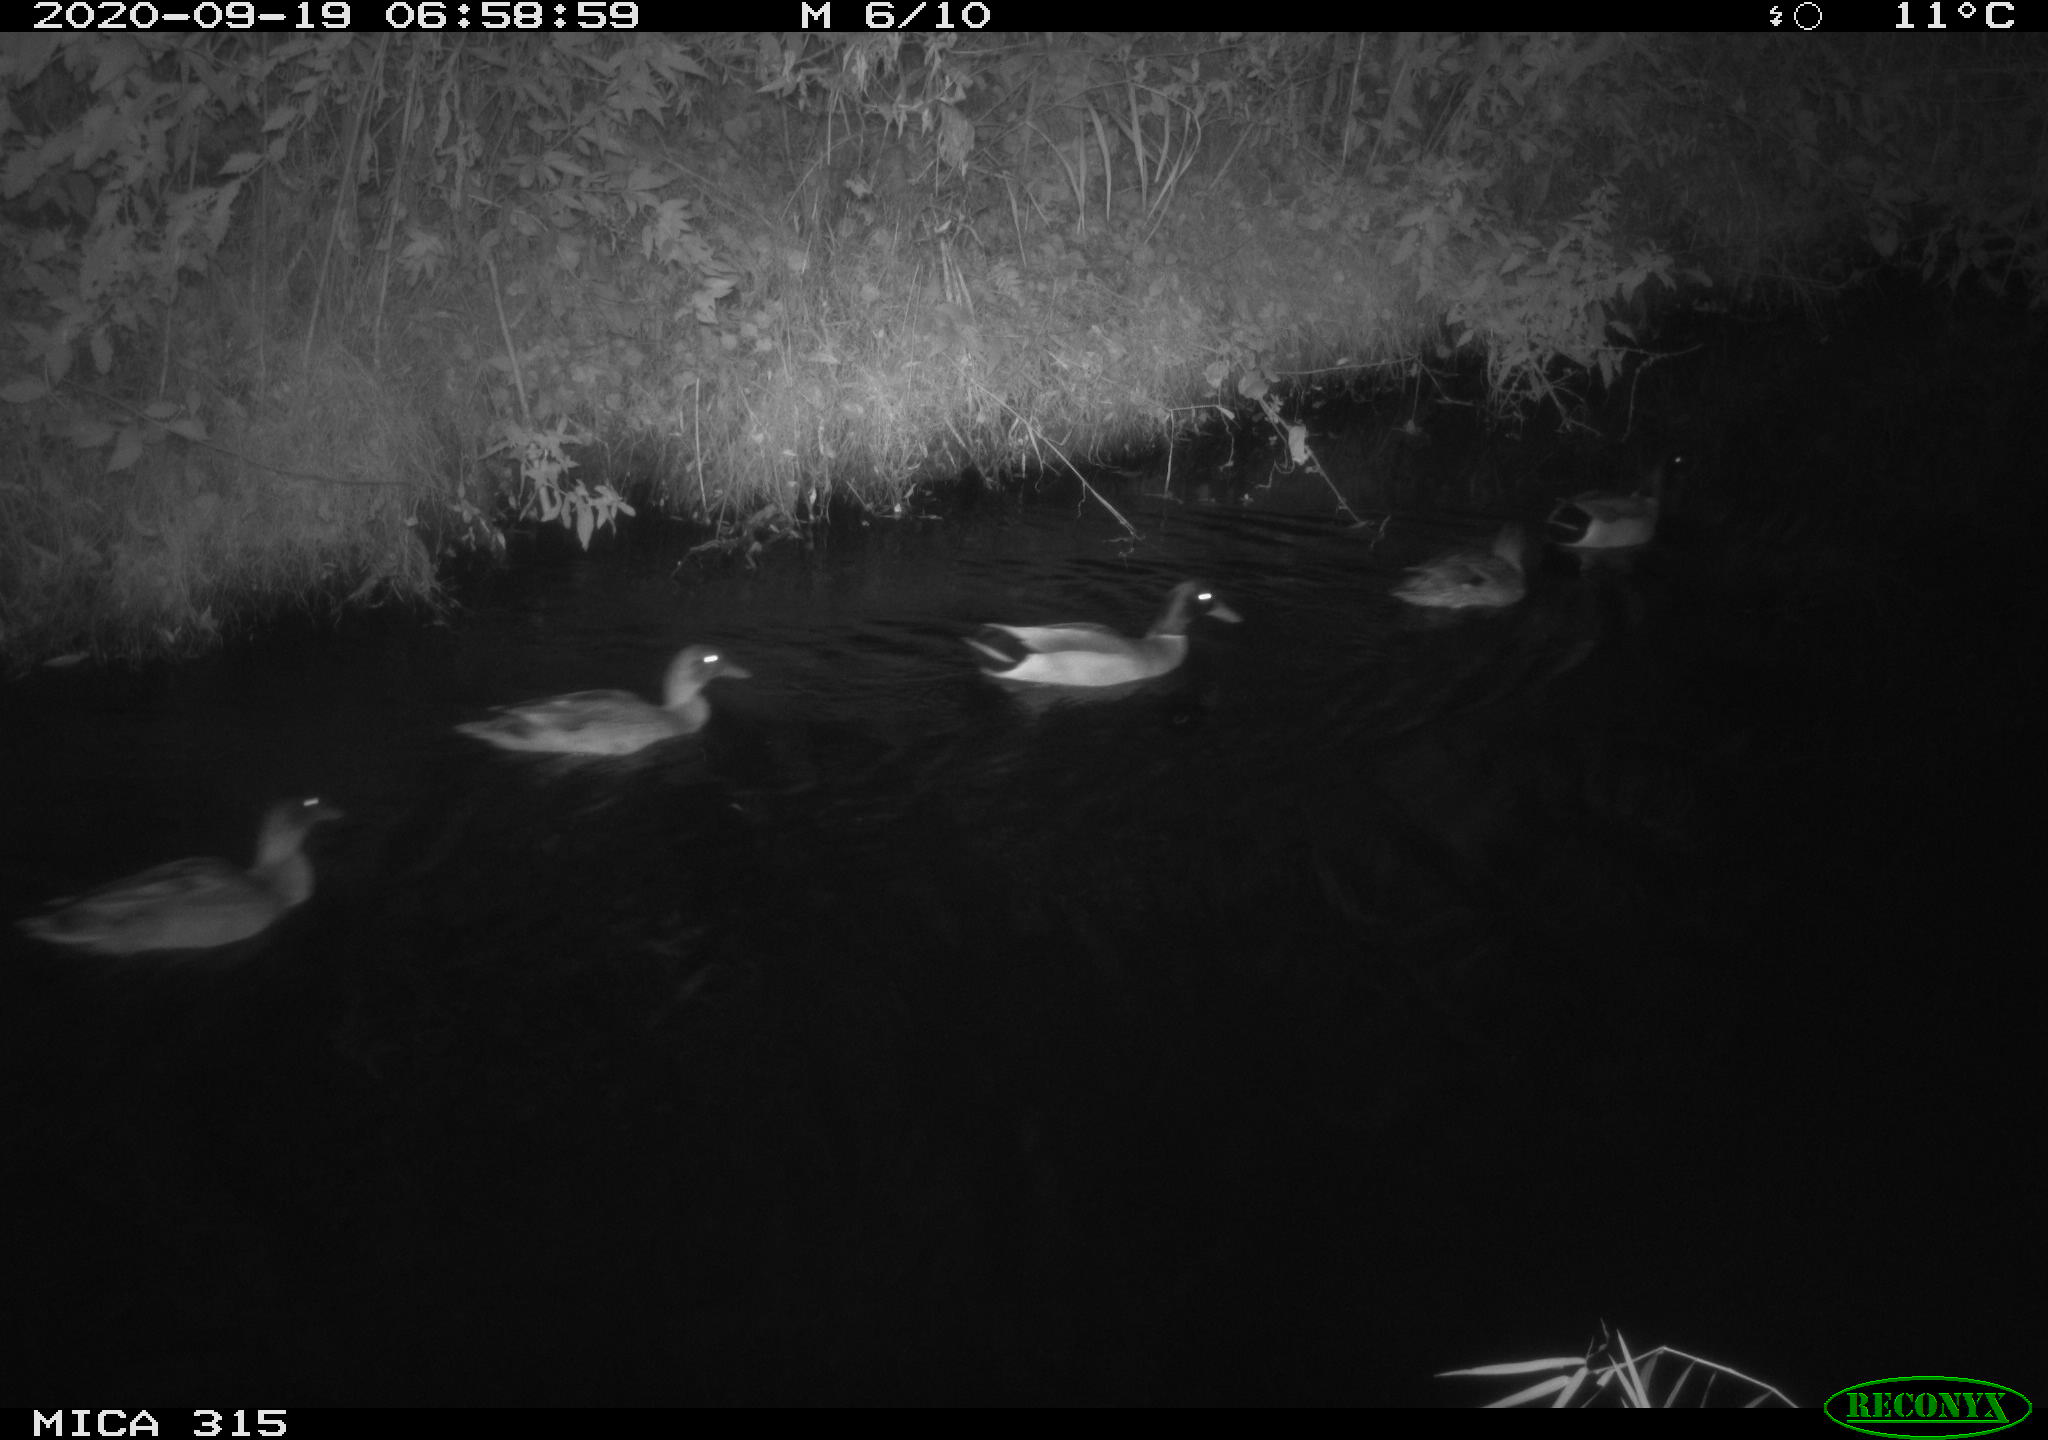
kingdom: Animalia
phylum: Chordata
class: Aves
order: Anseriformes
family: Anatidae
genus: Anas
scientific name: Anas platyrhynchos
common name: Mallard
